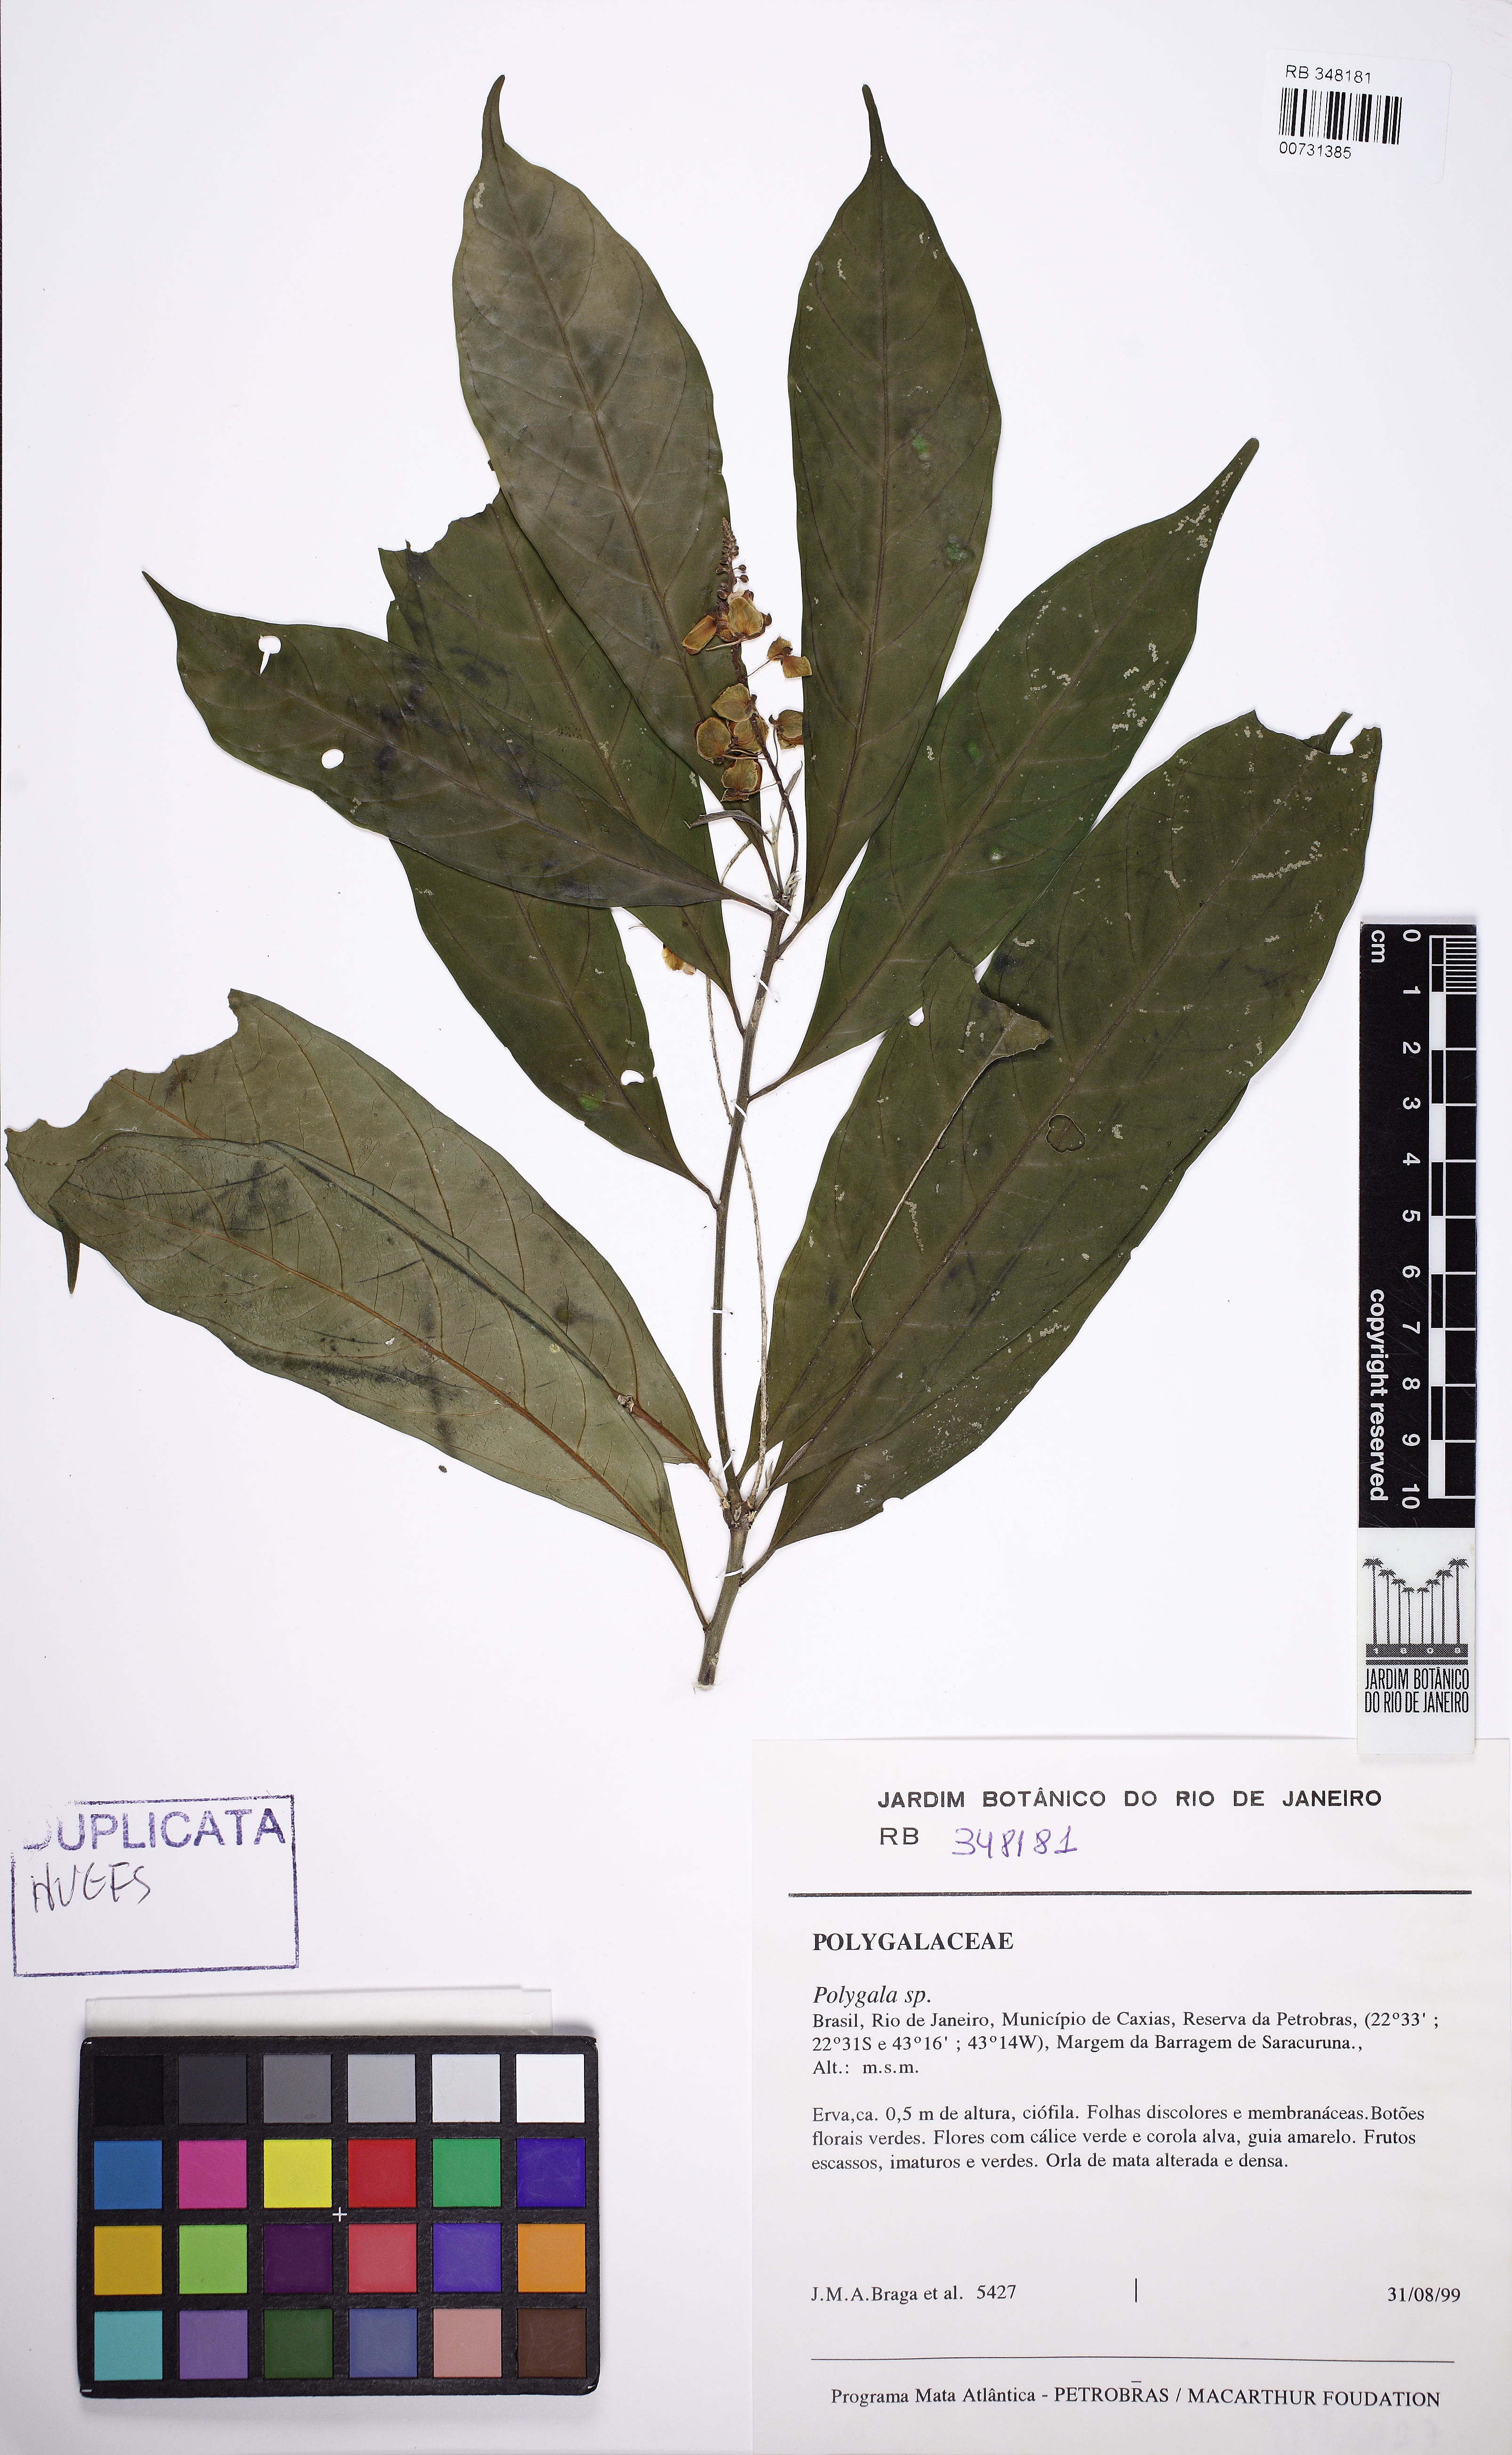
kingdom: Plantae
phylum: Tracheophyta
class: Magnoliopsida
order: Fabales
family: Polygalaceae
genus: Caamembeca
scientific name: Caamembeca
